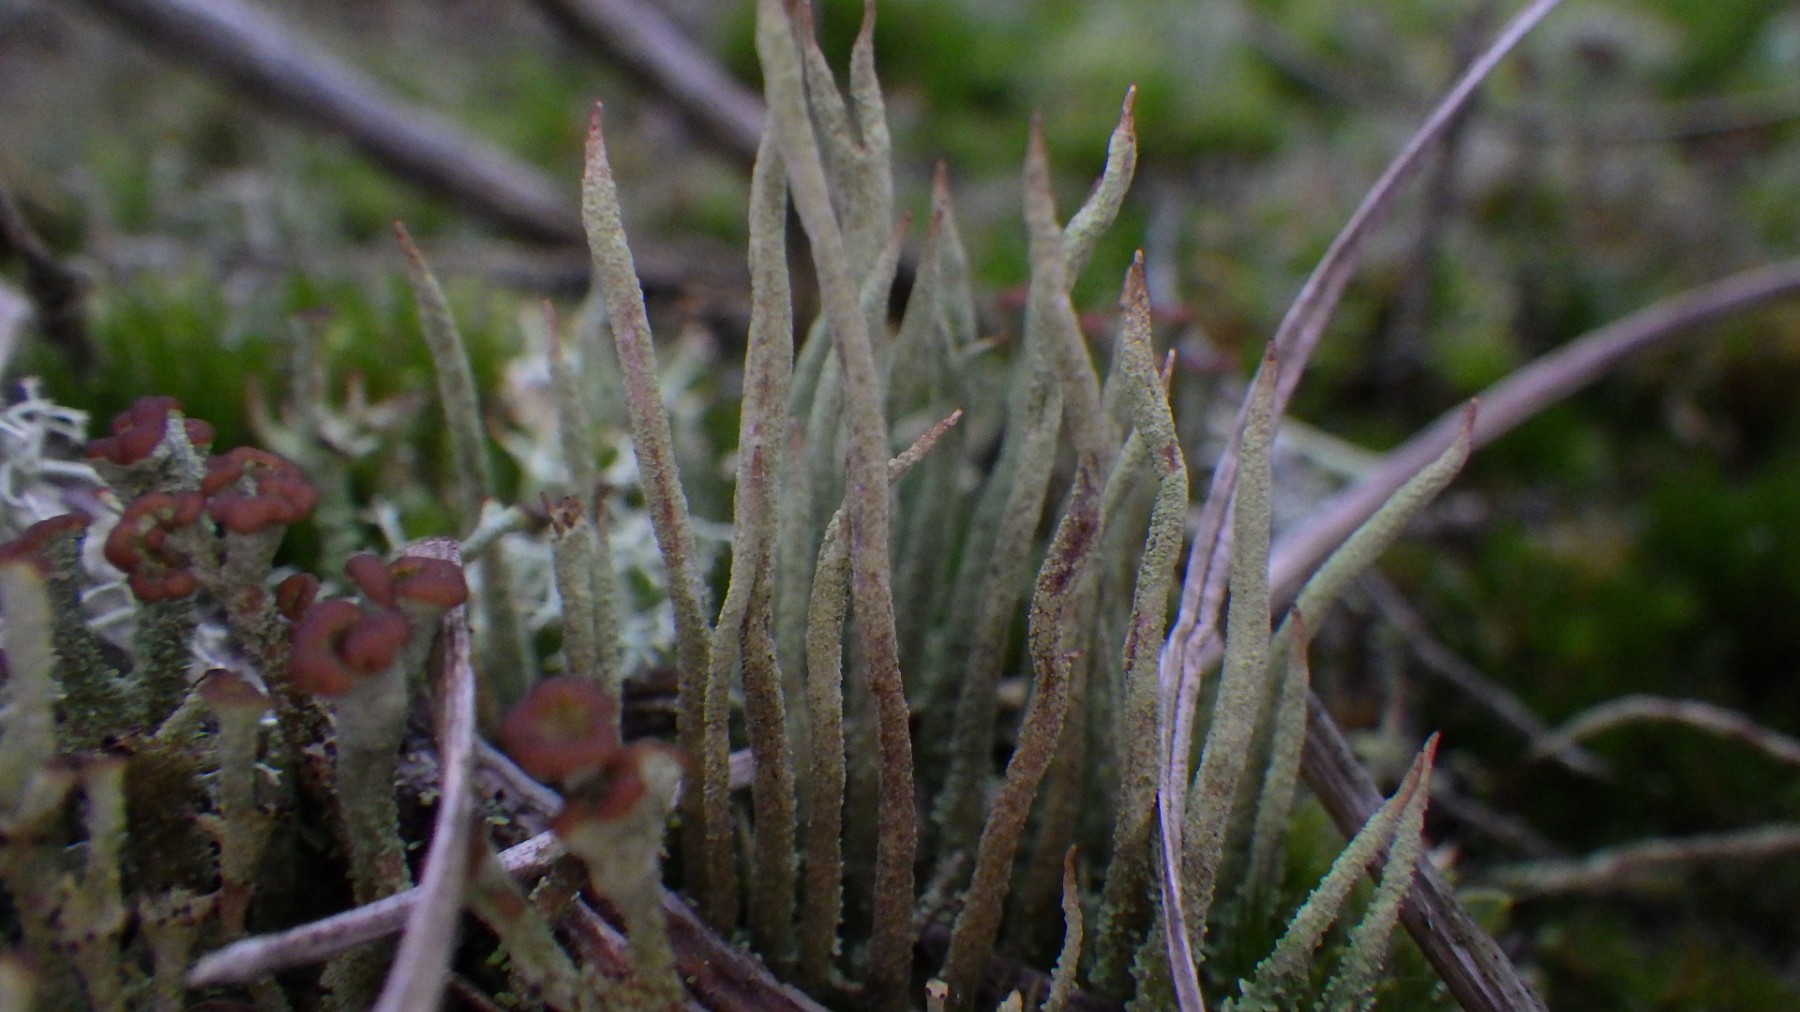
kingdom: Fungi
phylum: Ascomycota
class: Lecanoromycetes
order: Lecanorales
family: Cladoniaceae
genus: Cladonia
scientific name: Cladonia cornuta
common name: syl-bægerlav
